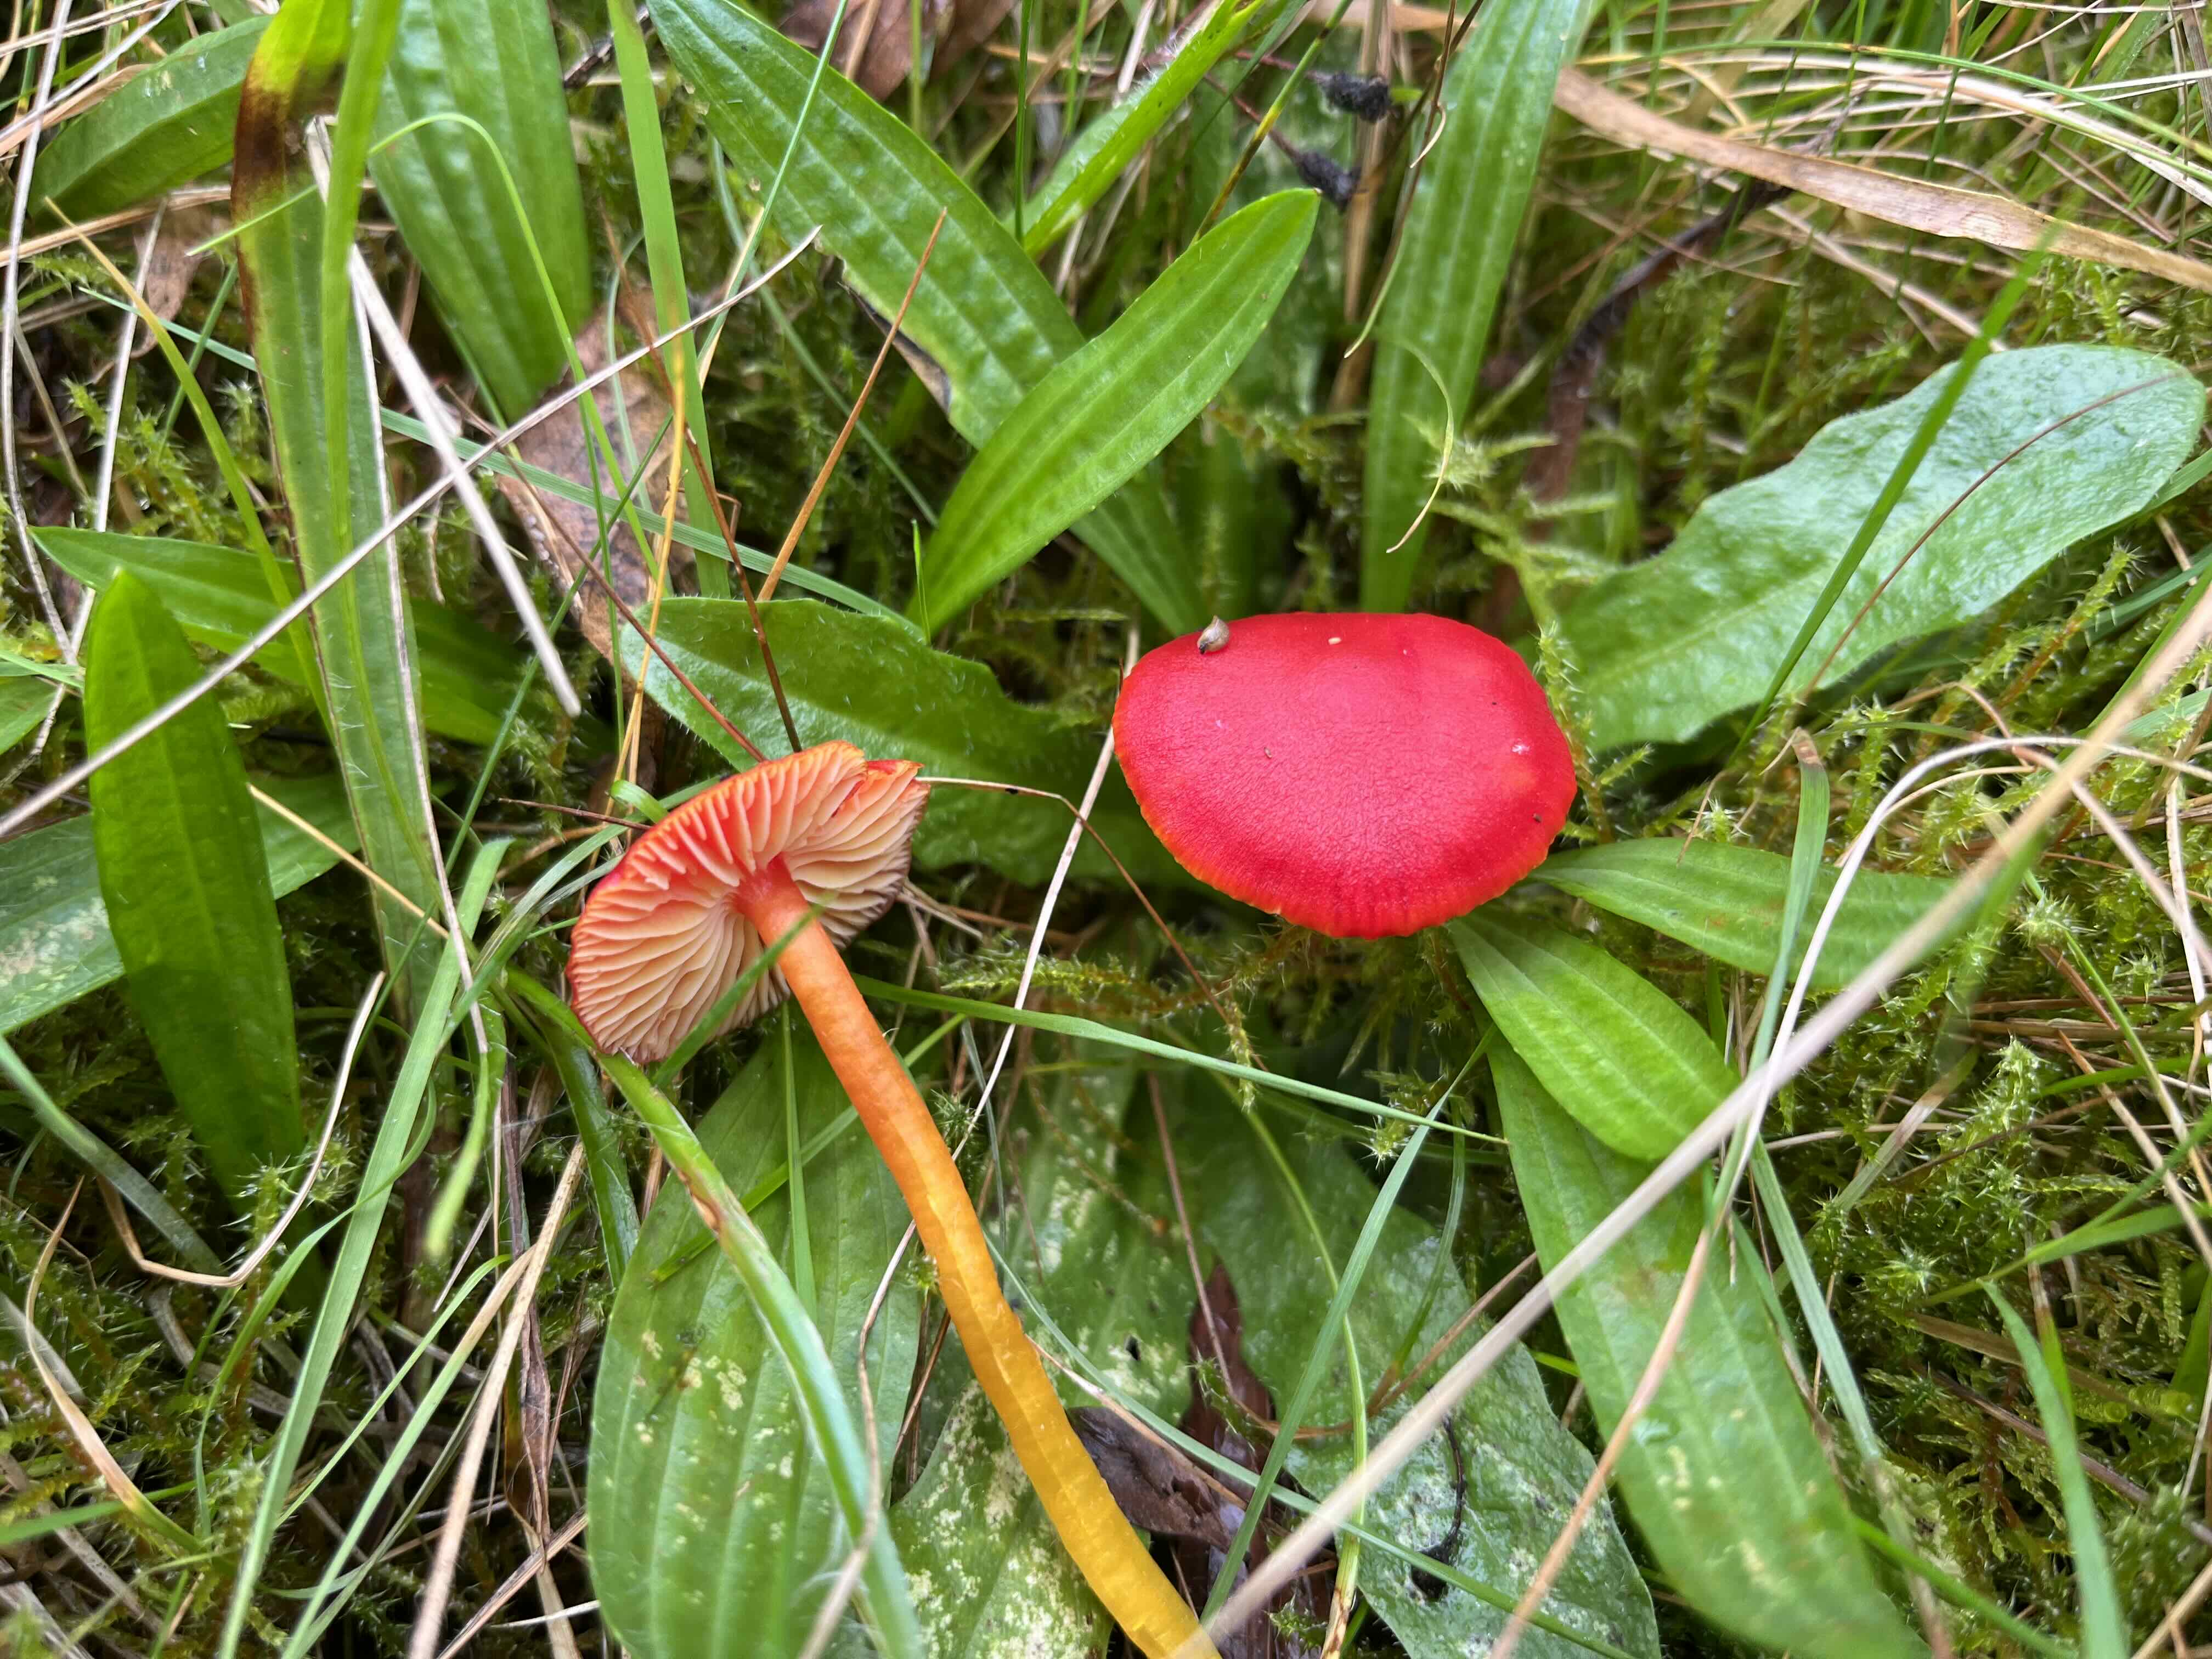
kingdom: Fungi
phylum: Basidiomycota
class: Agaricomycetes
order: Agaricales
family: Hygrophoraceae
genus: Hygrocybe
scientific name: Hygrocybe coccinea
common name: cinnober-vokshat
